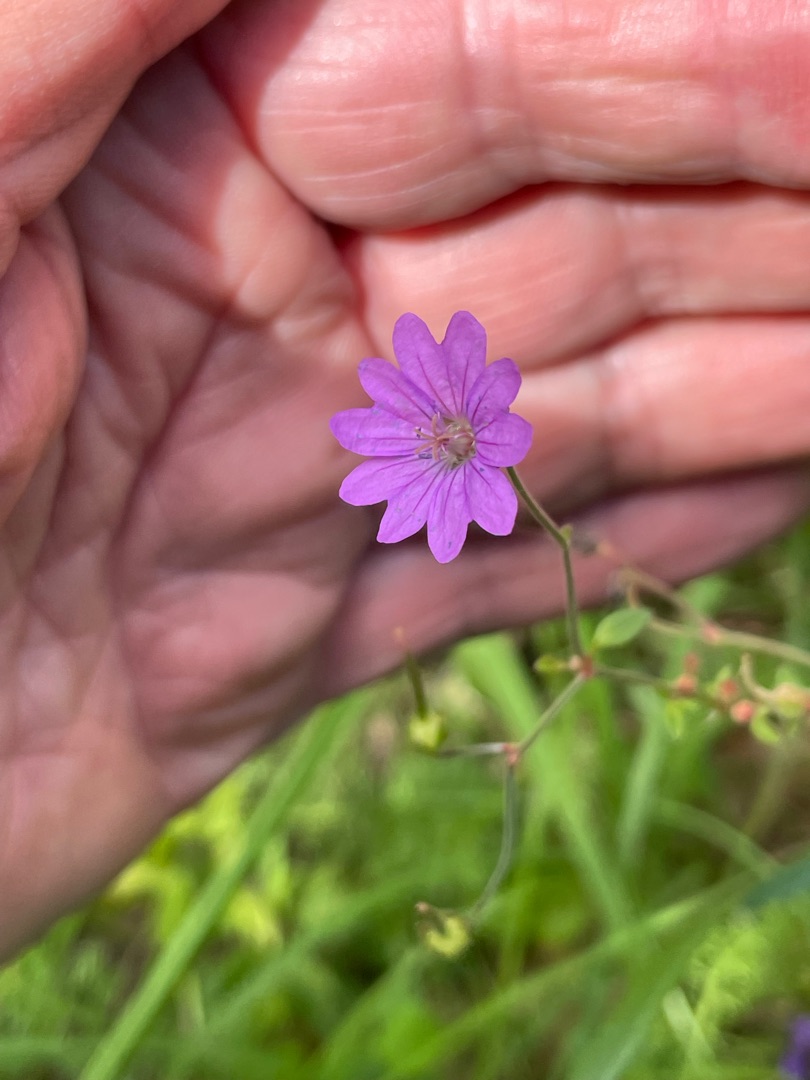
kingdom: Plantae
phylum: Tracheophyta
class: Magnoliopsida
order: Geraniales
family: Geraniaceae
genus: Geranium
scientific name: Geranium pyrenaicum
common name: Pyrenæisk storkenæb
